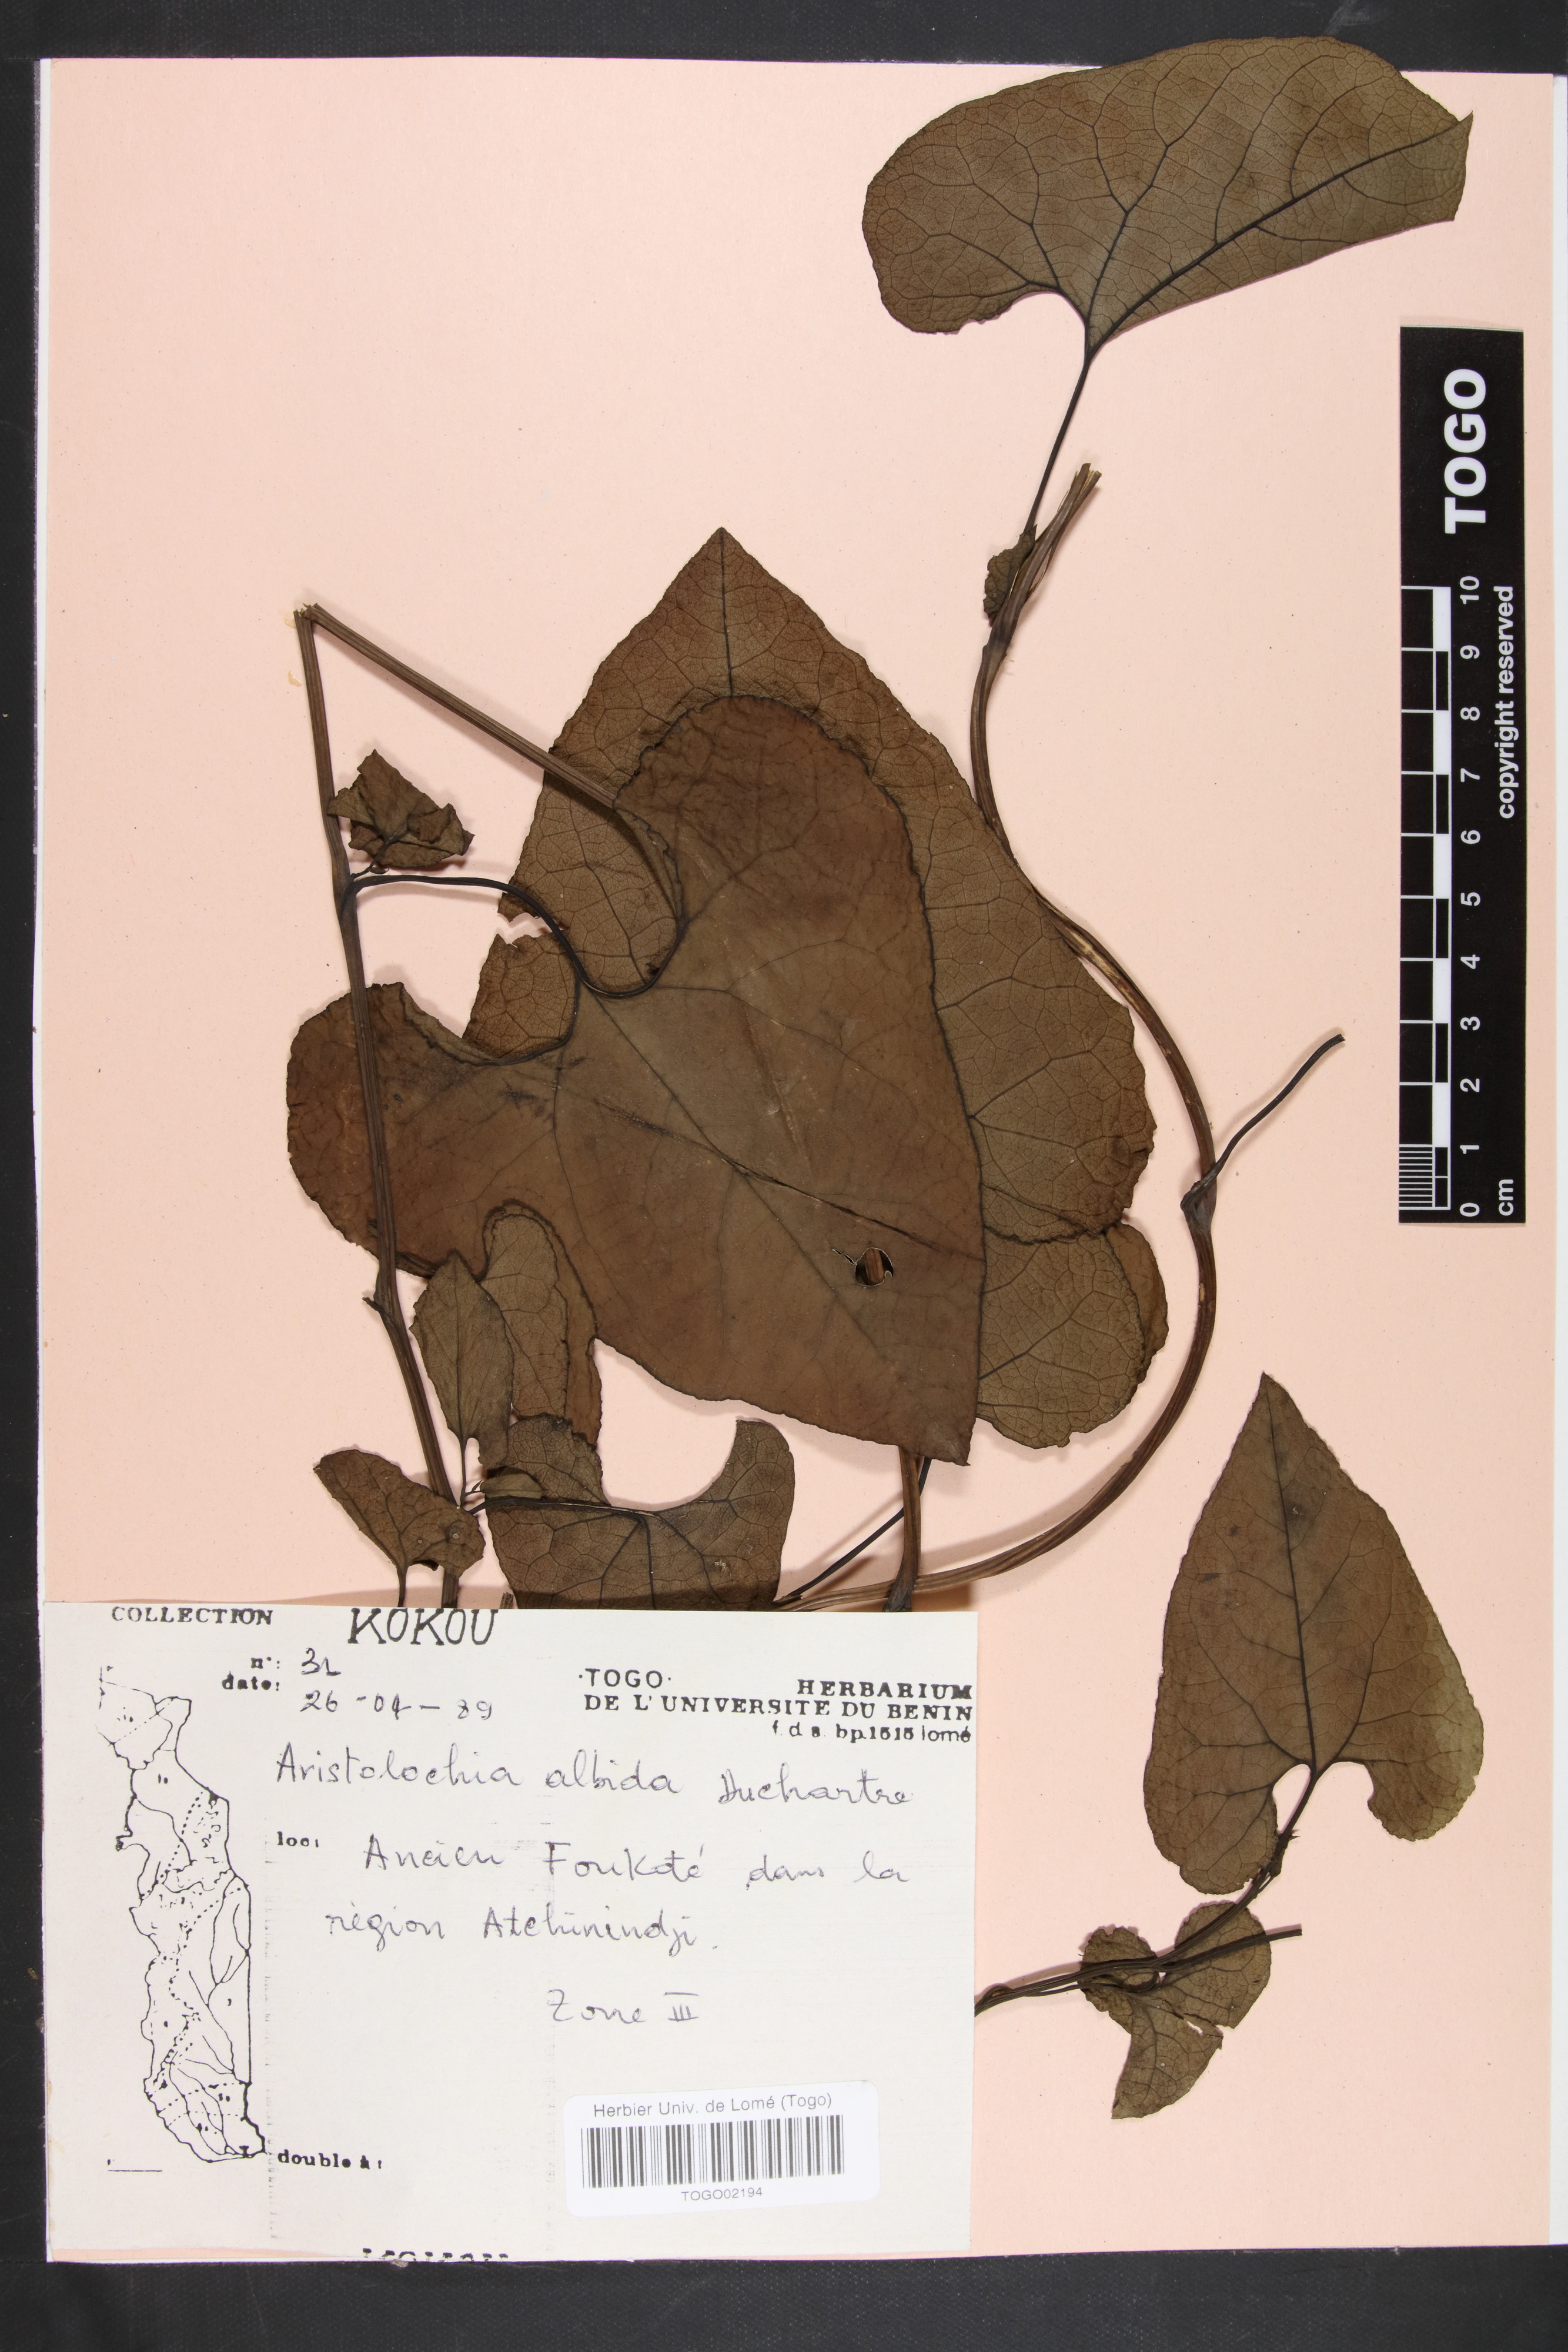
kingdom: Plantae
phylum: Tracheophyta
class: Magnoliopsida
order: Piperales
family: Aristolochiaceae
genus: Aristolochia
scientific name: Aristolochia albida
